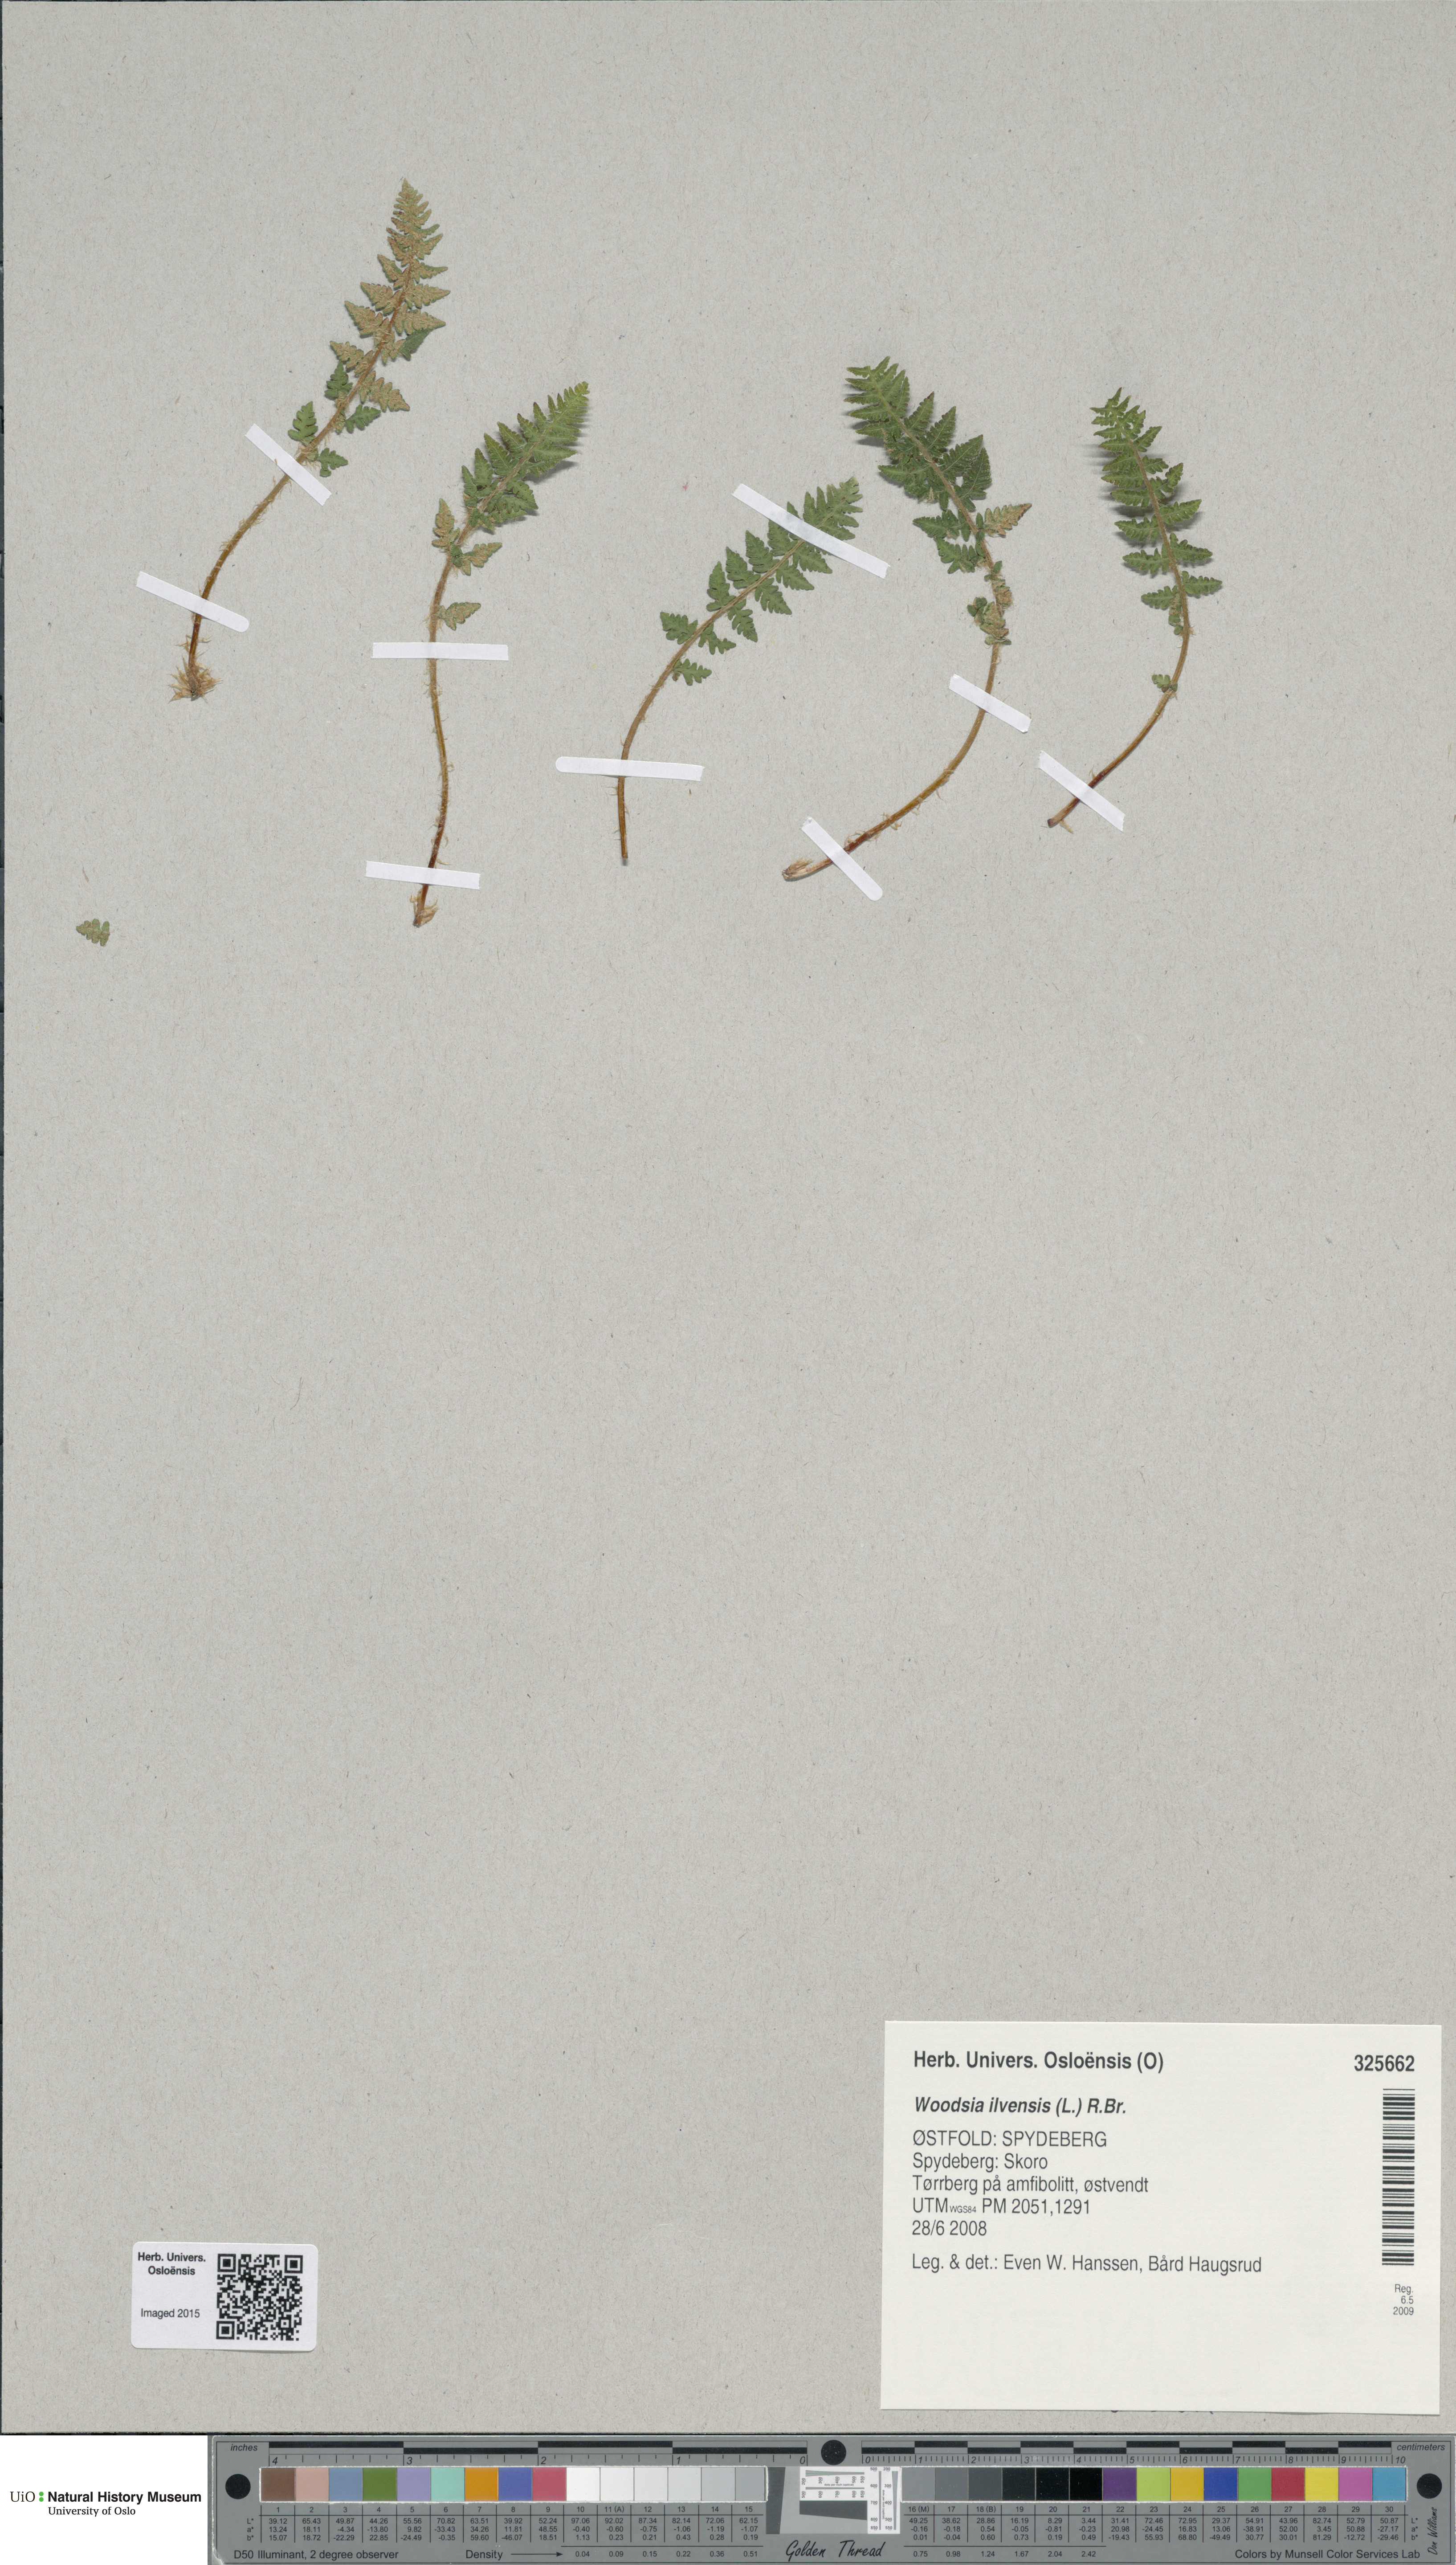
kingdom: Plantae
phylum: Tracheophyta
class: Polypodiopsida
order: Polypodiales
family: Woodsiaceae
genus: Woodsia
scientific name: Woodsia ilvensis
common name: Fragrant woodsia
